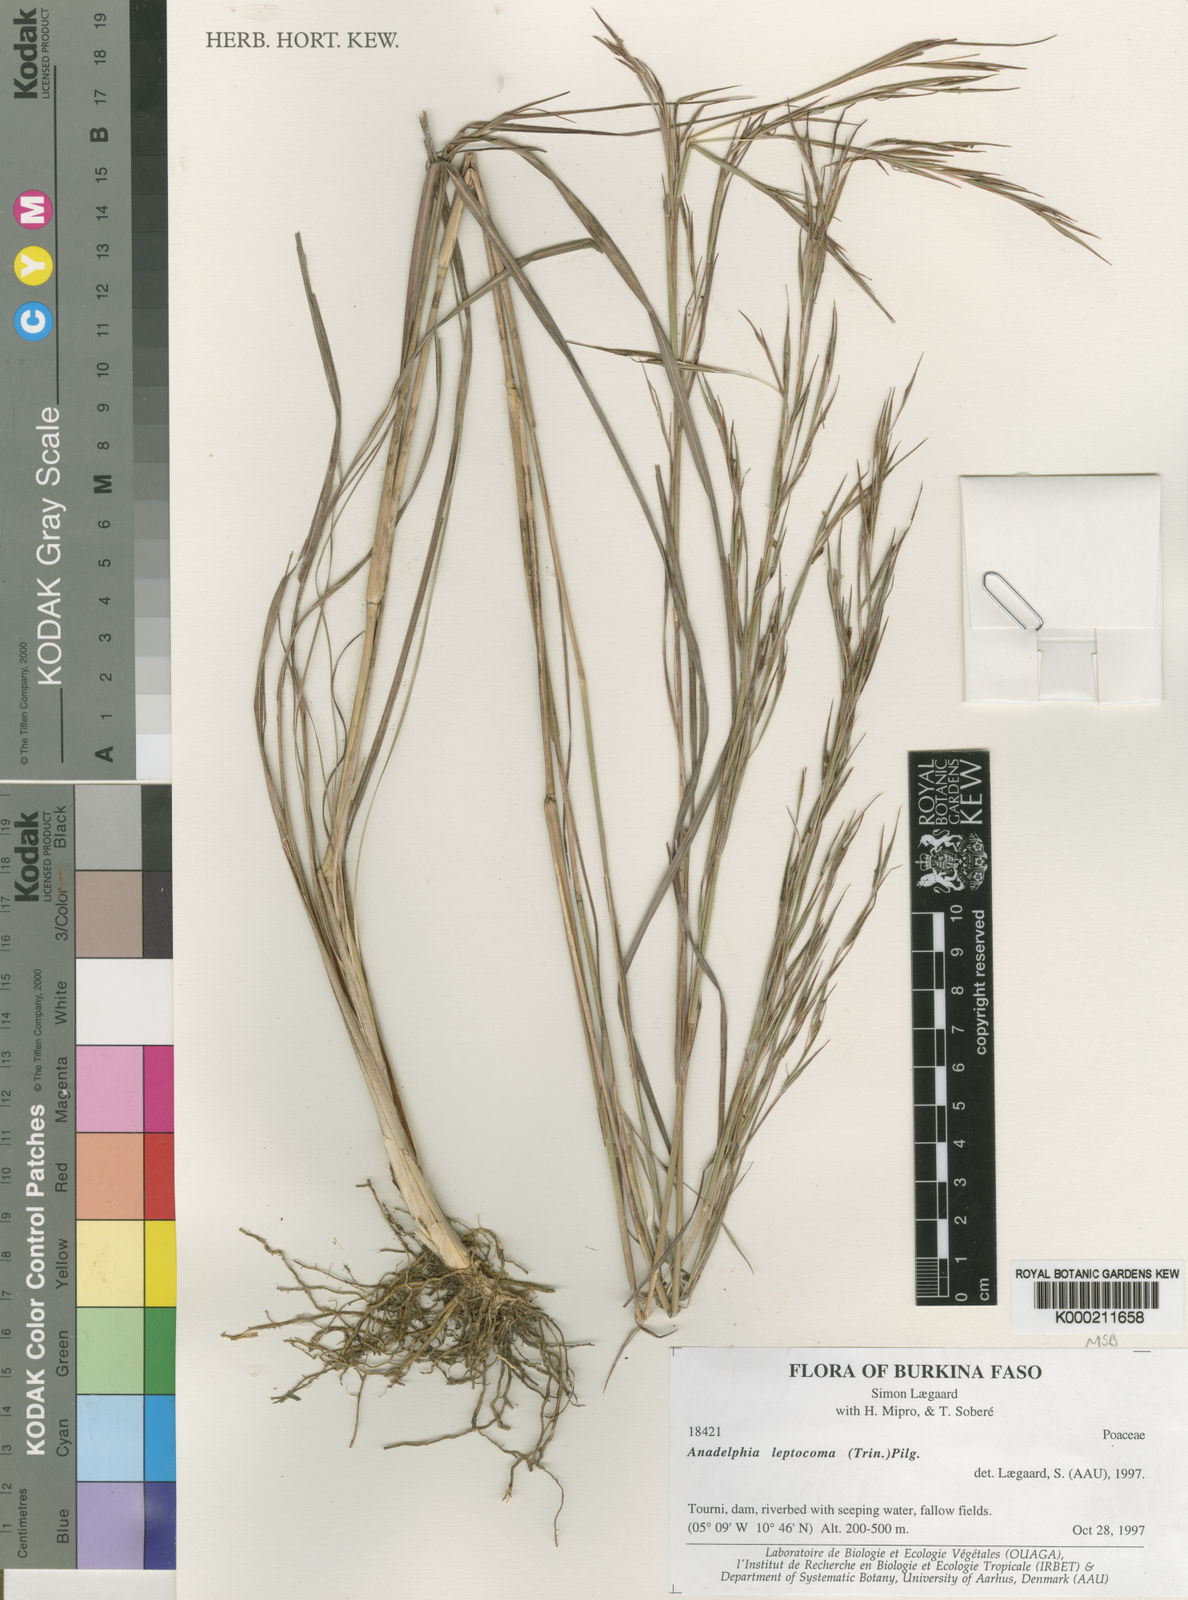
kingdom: Plantae
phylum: Tracheophyta
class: Liliopsida
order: Poales
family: Poaceae
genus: Anadelphia
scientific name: Anadelphia
